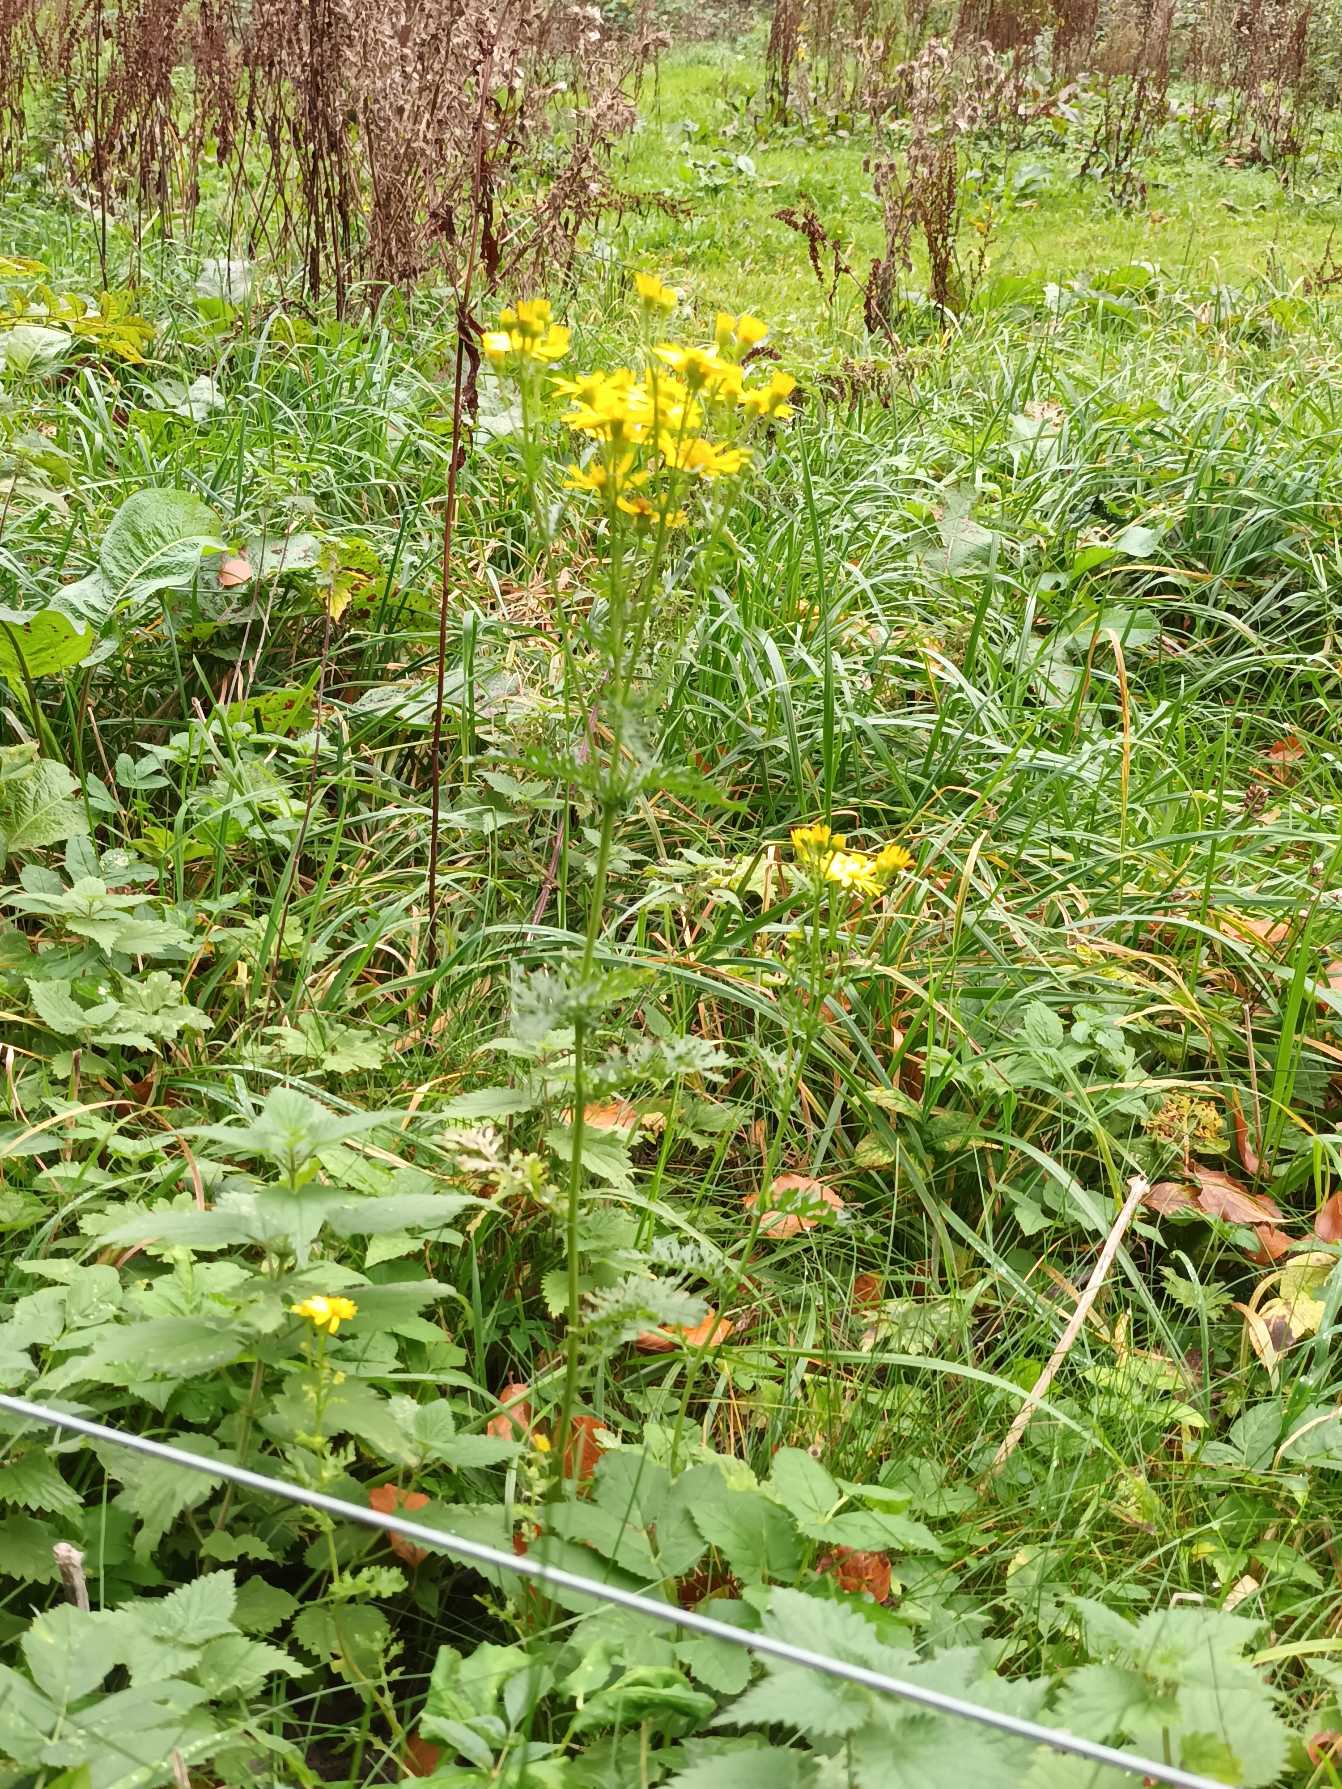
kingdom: Plantae
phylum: Tracheophyta
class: Magnoliopsida
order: Asterales
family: Asteraceae
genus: Jacobaea
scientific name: Jacobaea vulgaris
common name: Eng-brandbæger
